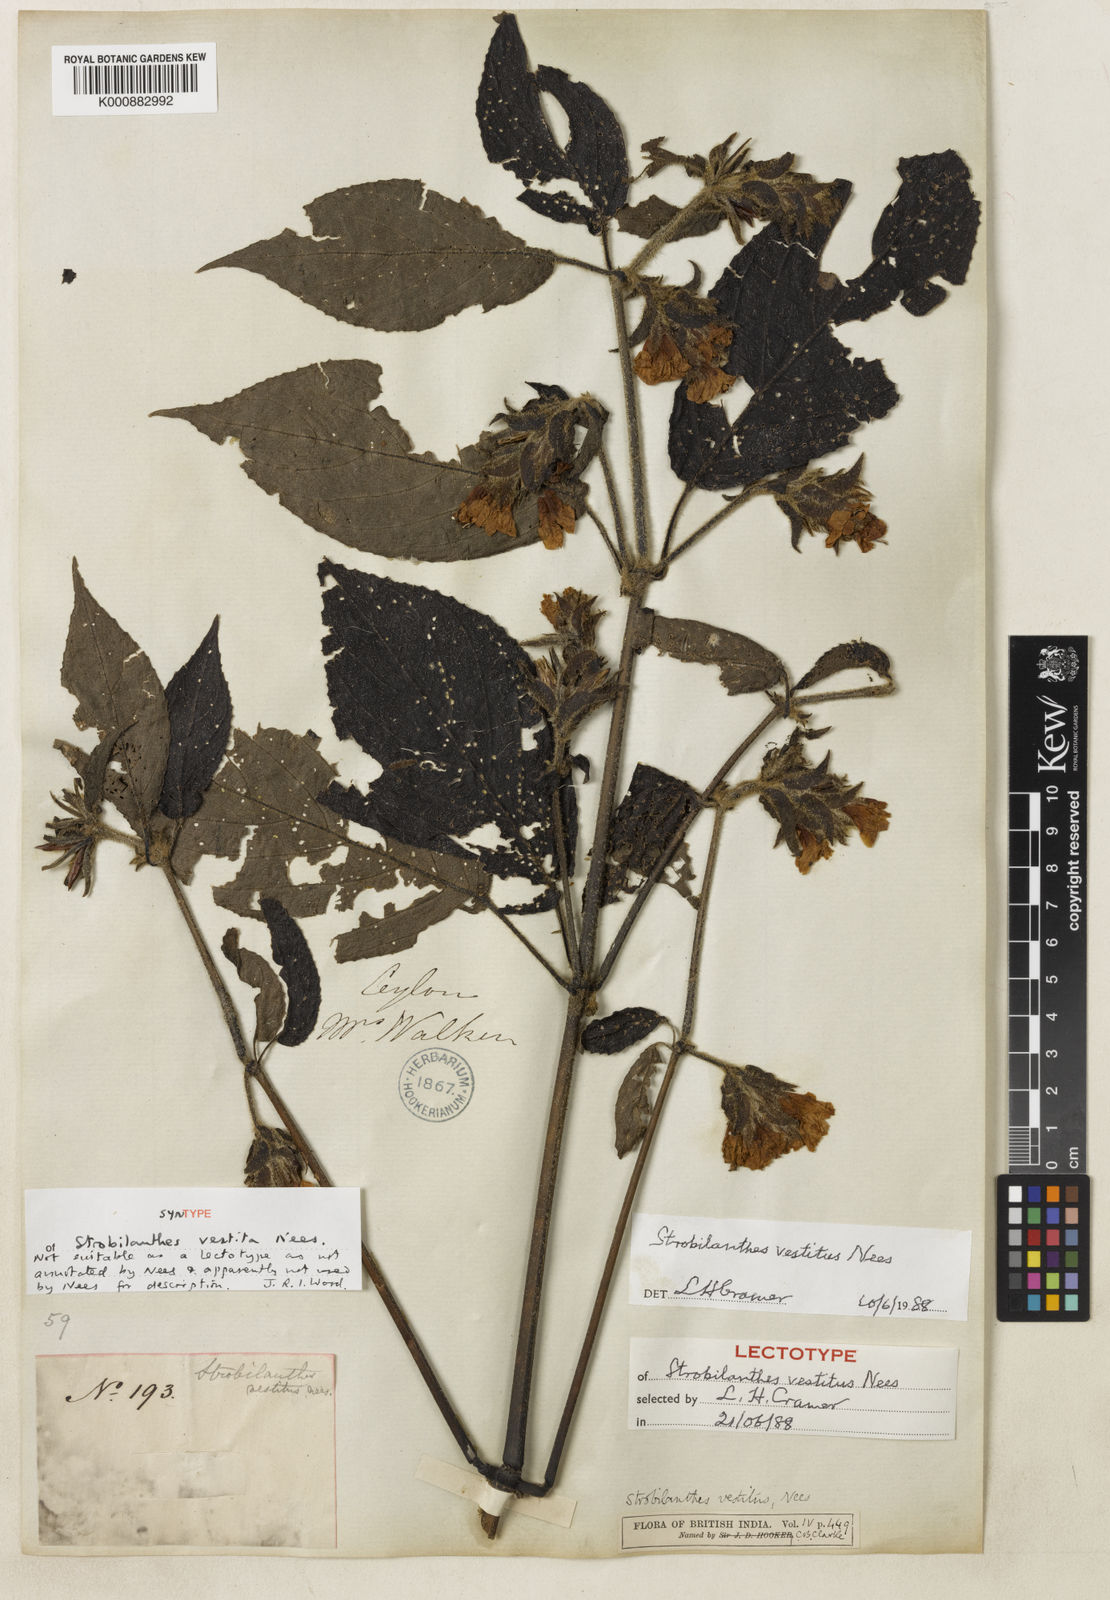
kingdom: Plantae
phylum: Tracheophyta
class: Magnoliopsida
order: Lamiales
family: Acanthaceae
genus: Strobilanthes
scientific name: Strobilanthes vestita
